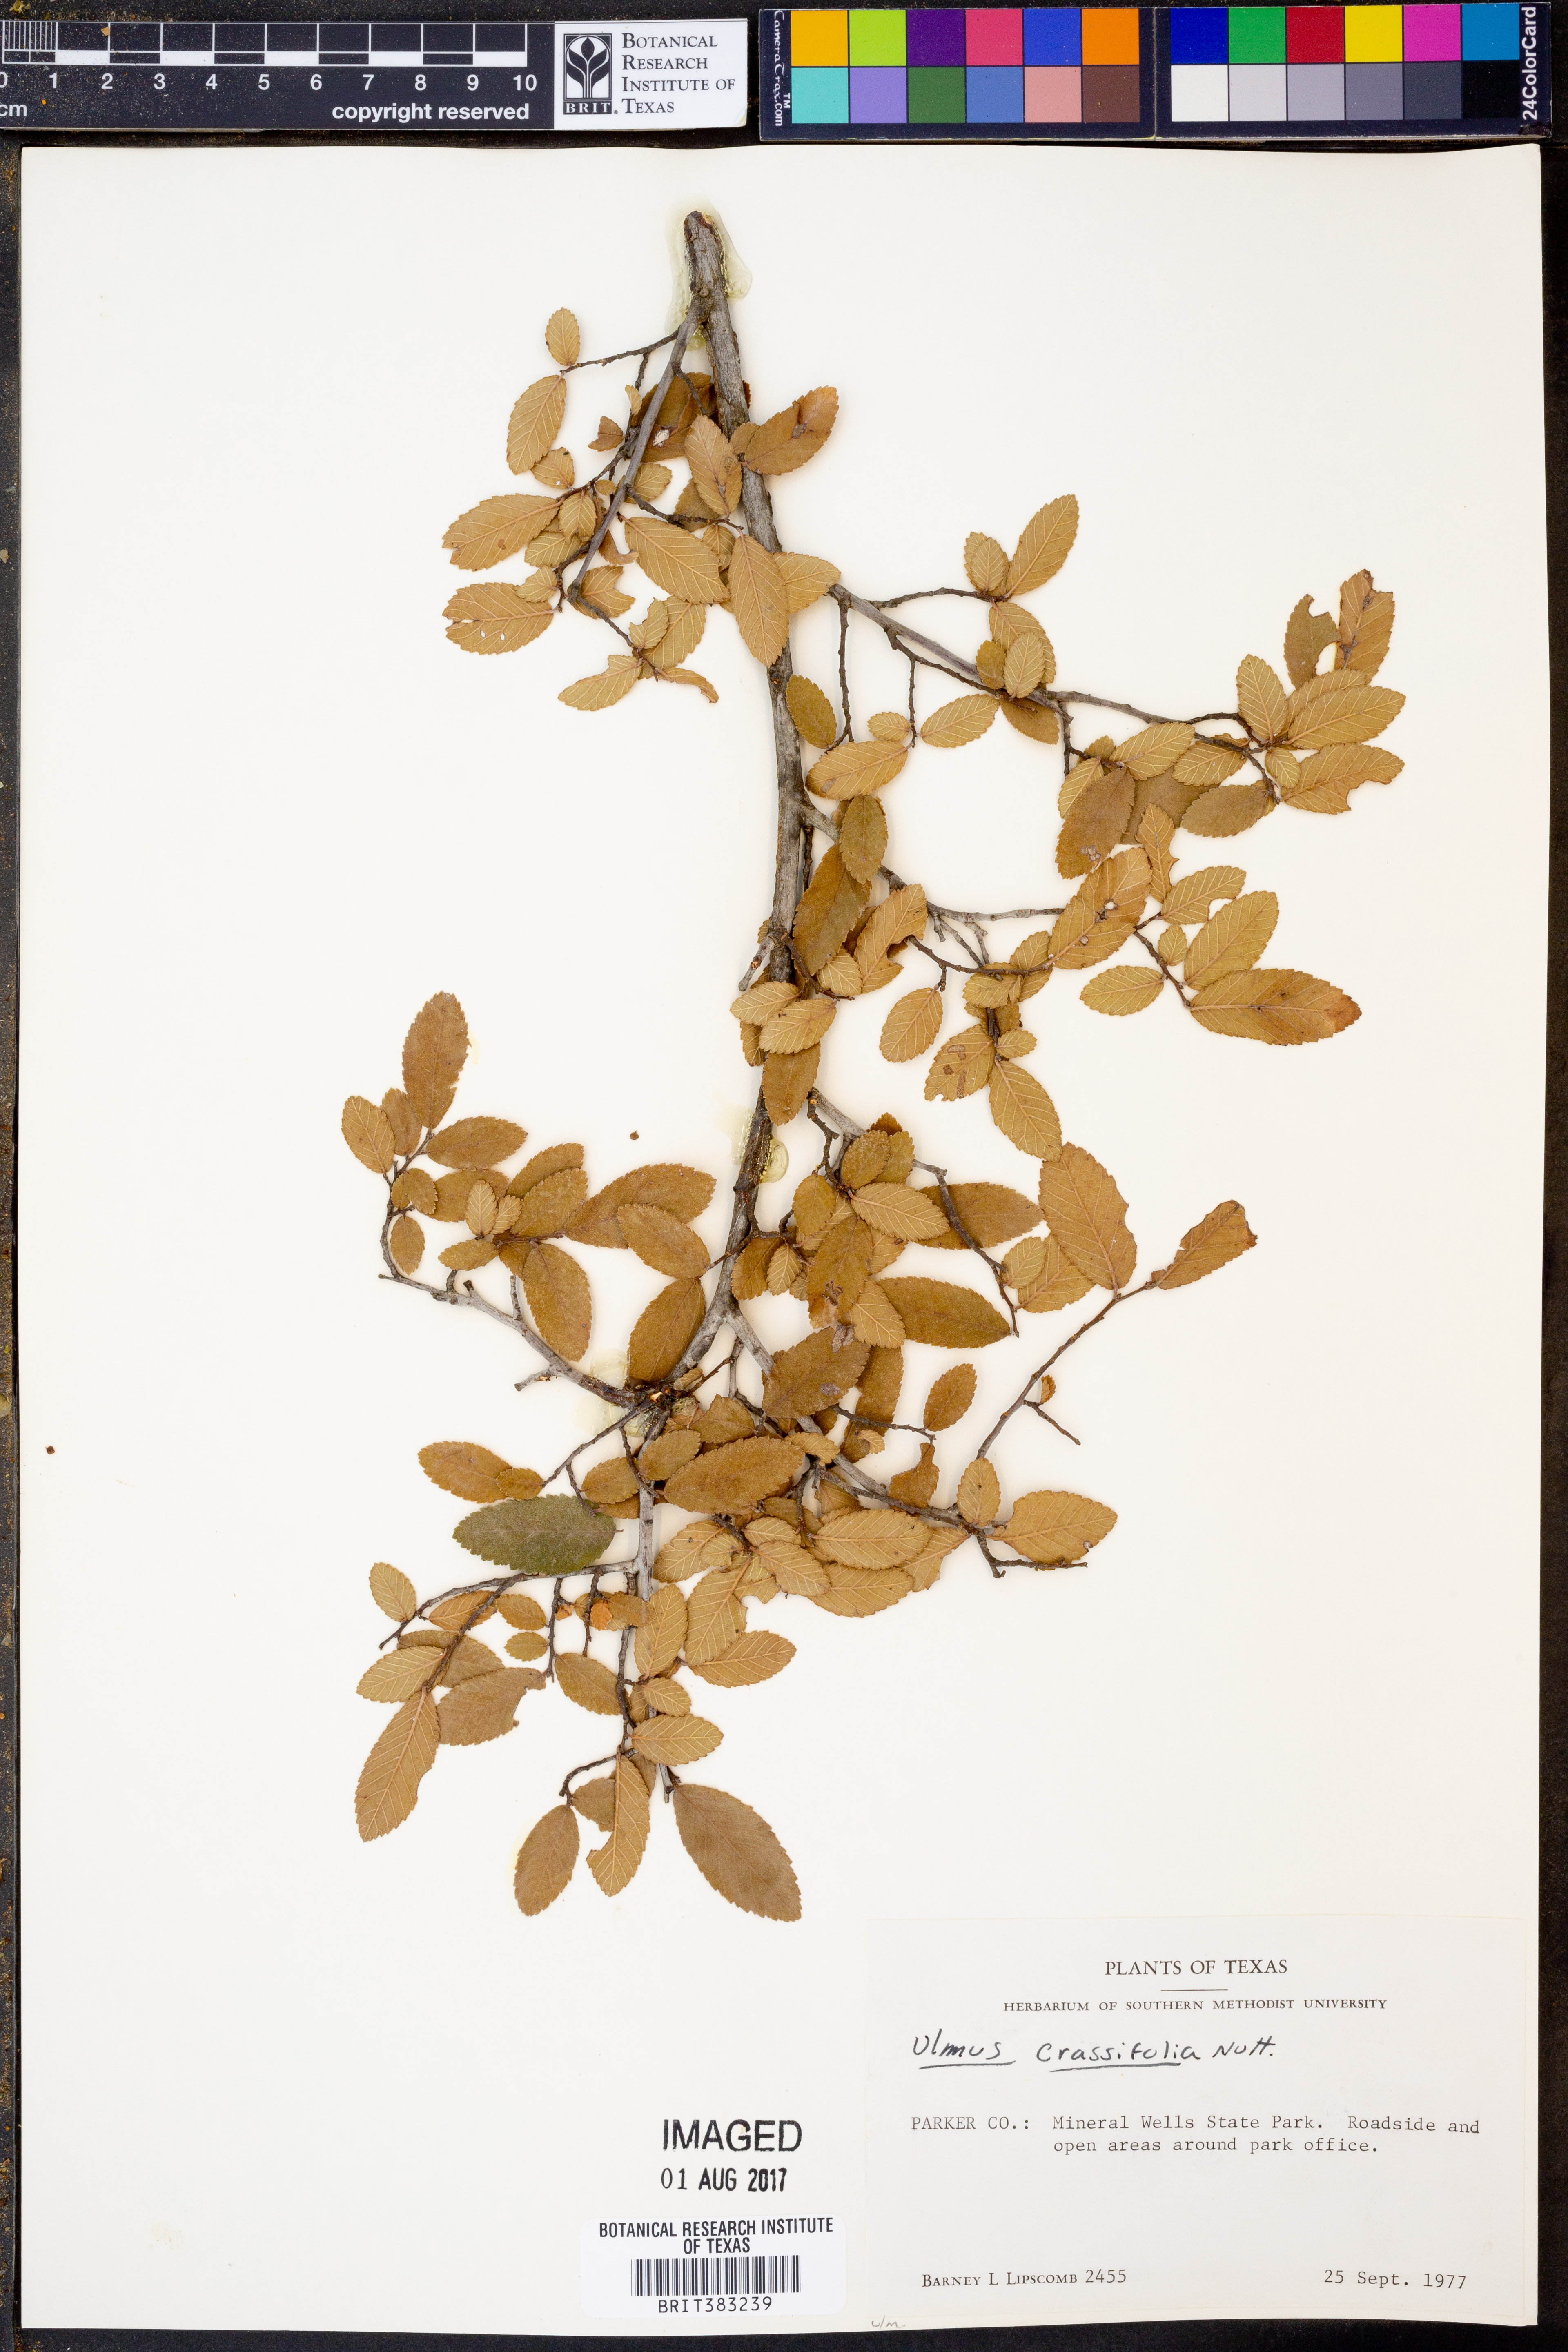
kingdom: Plantae
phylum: Tracheophyta
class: Magnoliopsida
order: Rosales
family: Ulmaceae
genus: Ulmus
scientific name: Ulmus crassifolia
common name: Basket elm
